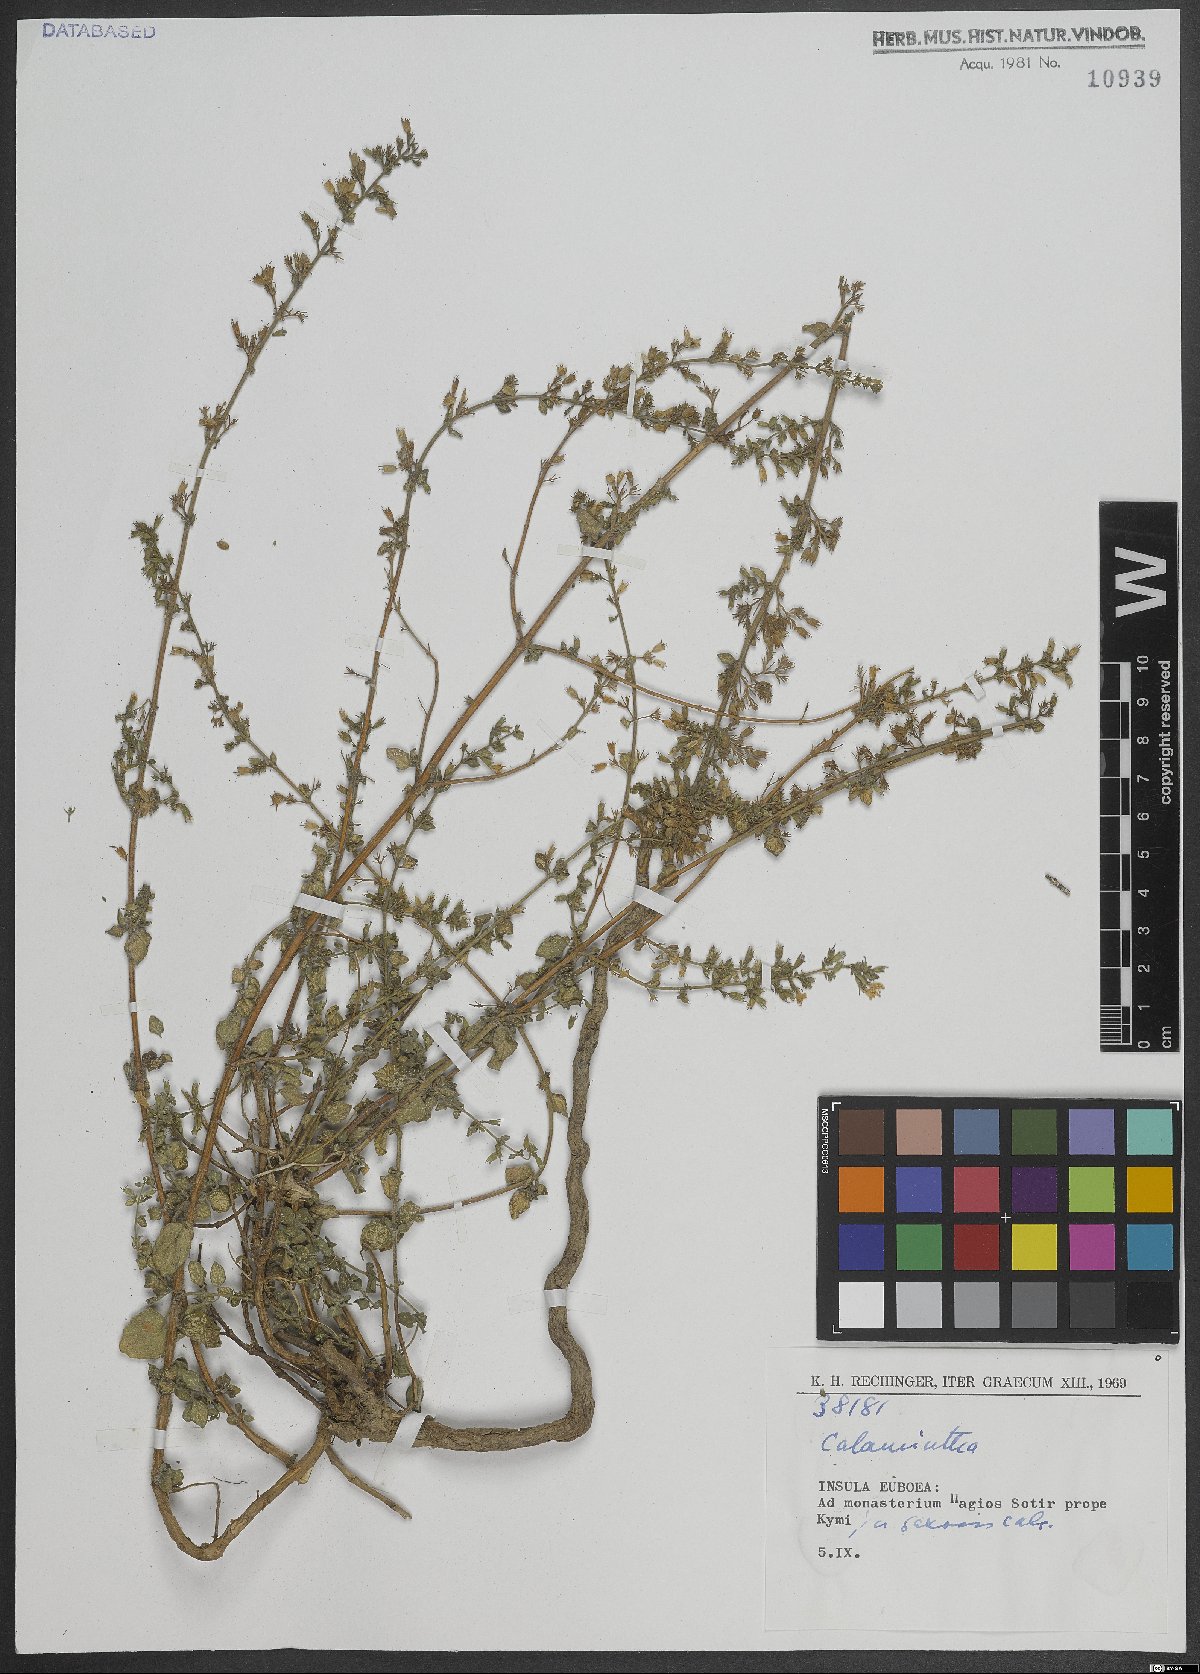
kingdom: Plantae
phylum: Tracheophyta
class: Magnoliopsida
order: Lamiales
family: Lamiaceae
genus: Calamintha
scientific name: Calamintha
